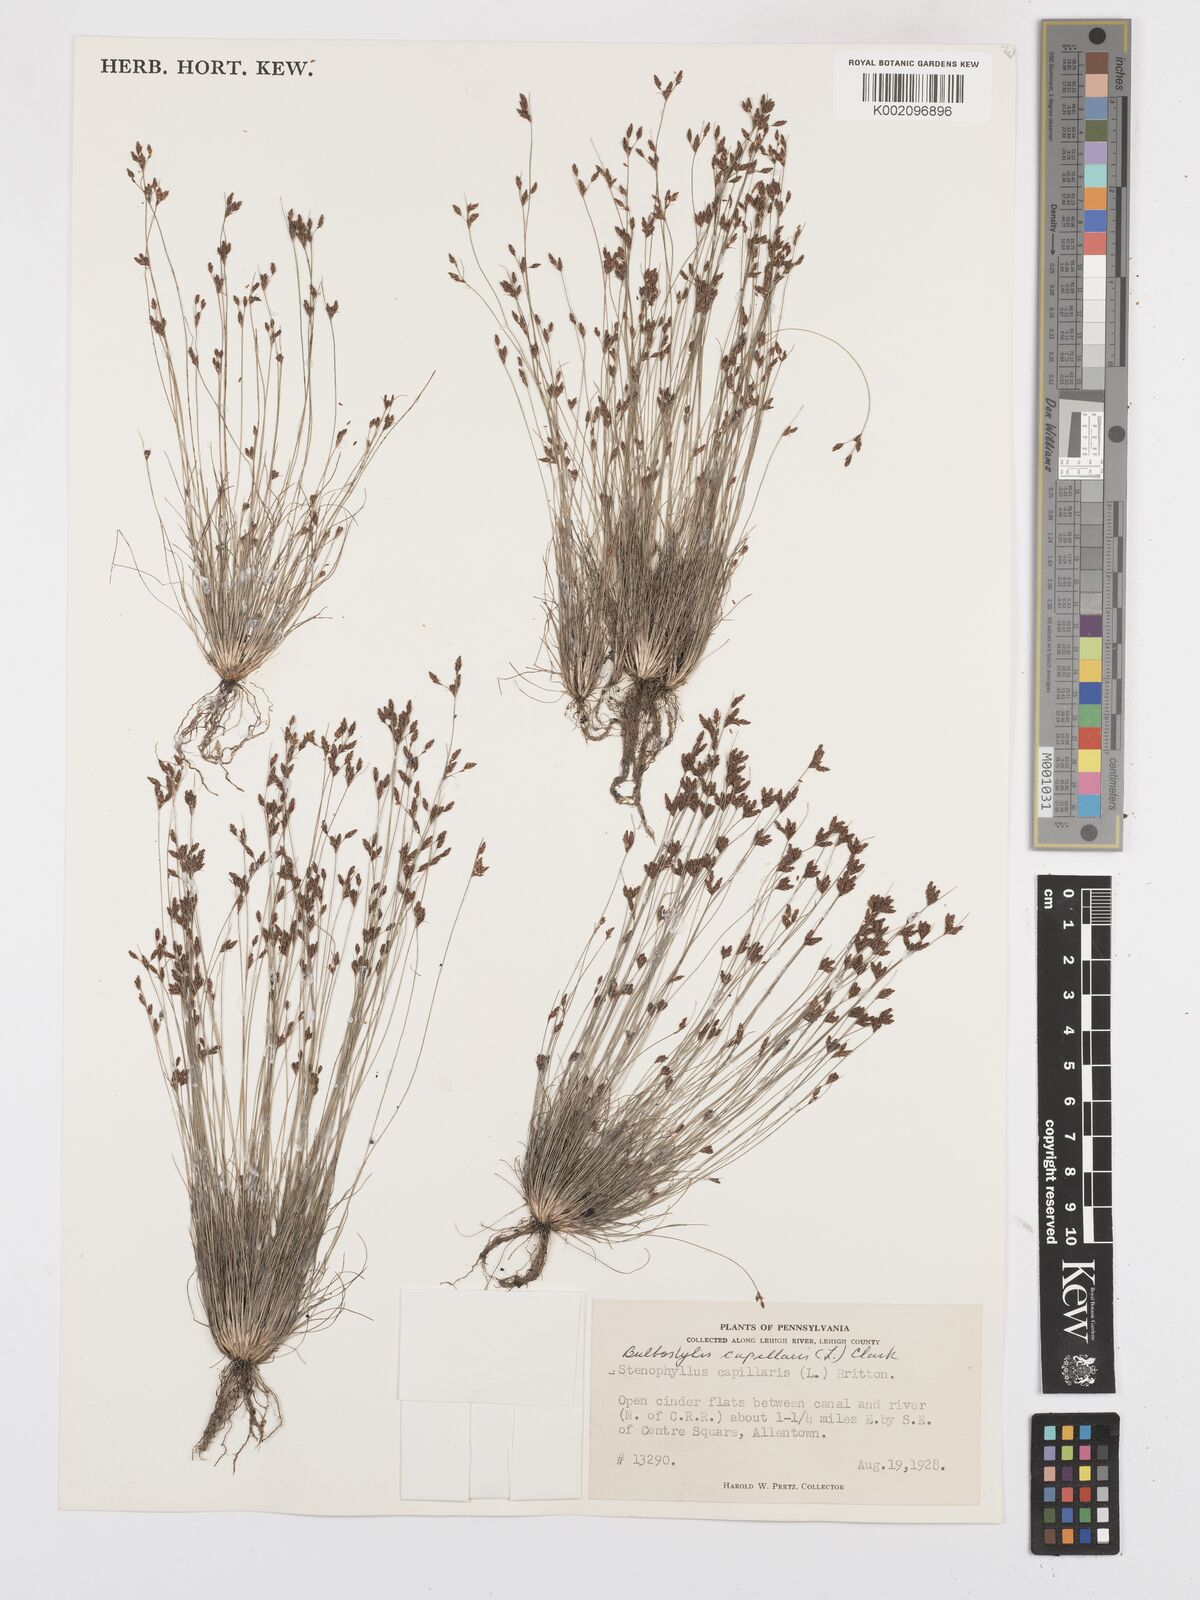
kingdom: Plantae
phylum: Tracheophyta
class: Liliopsida
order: Poales
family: Cyperaceae
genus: Bulbostylis
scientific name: Bulbostylis capillaris
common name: Densetuft hairsedge
